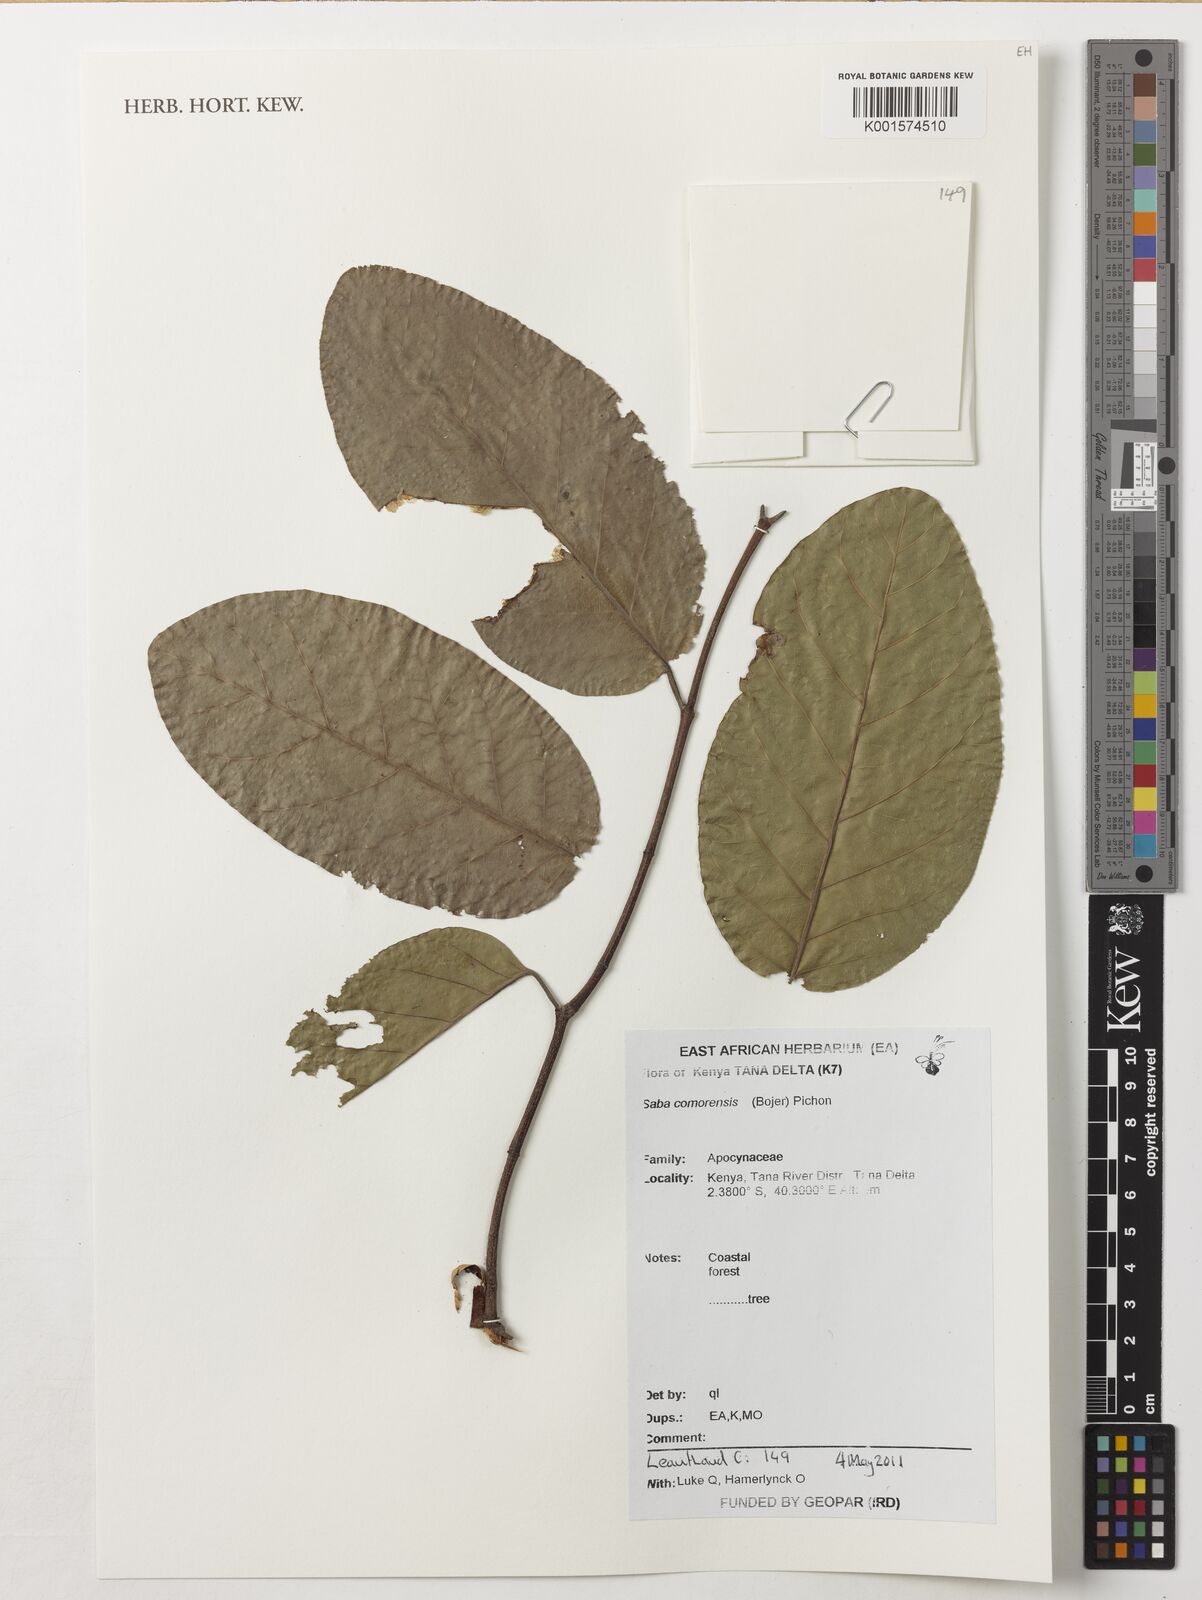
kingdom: Plantae
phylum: Tracheophyta
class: Magnoliopsida
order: Gentianales
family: Apocynaceae
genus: Saba
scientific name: Saba comorensis
